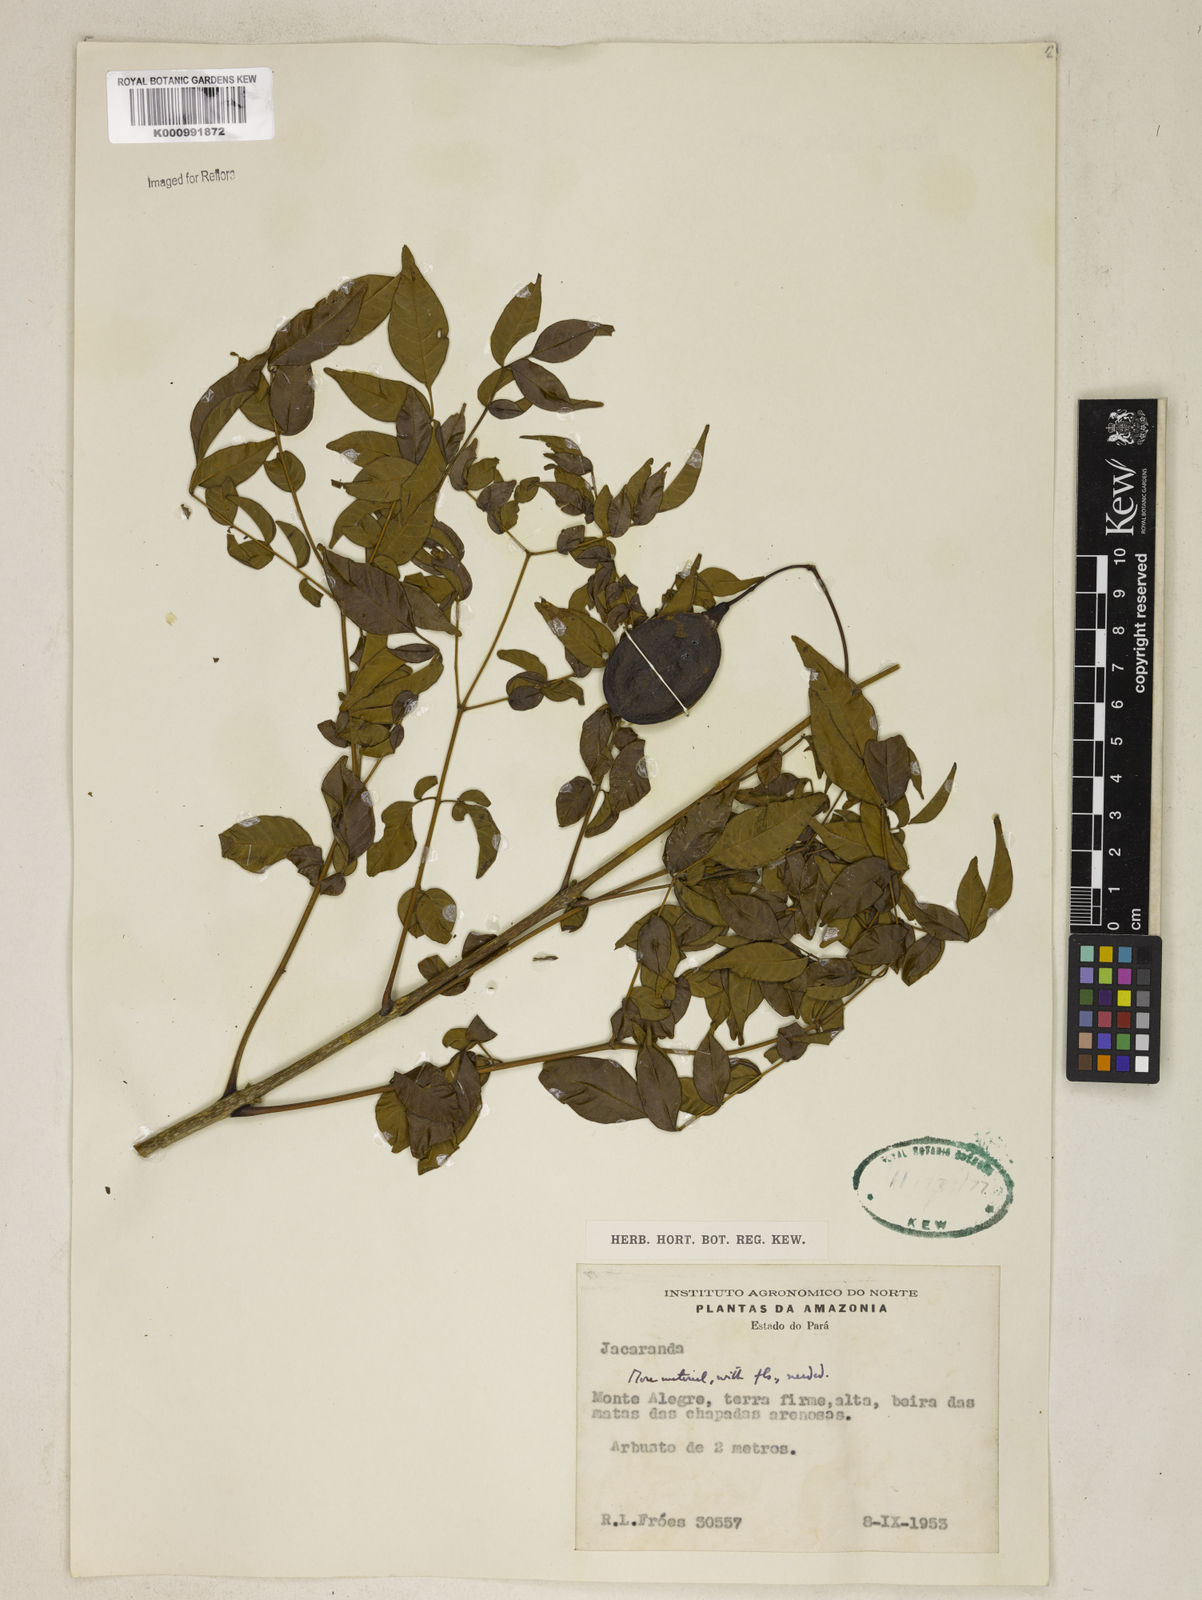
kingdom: Plantae
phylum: Tracheophyta
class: Magnoliopsida
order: Lamiales
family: Bignoniaceae
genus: Jacaranda
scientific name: Jacaranda
